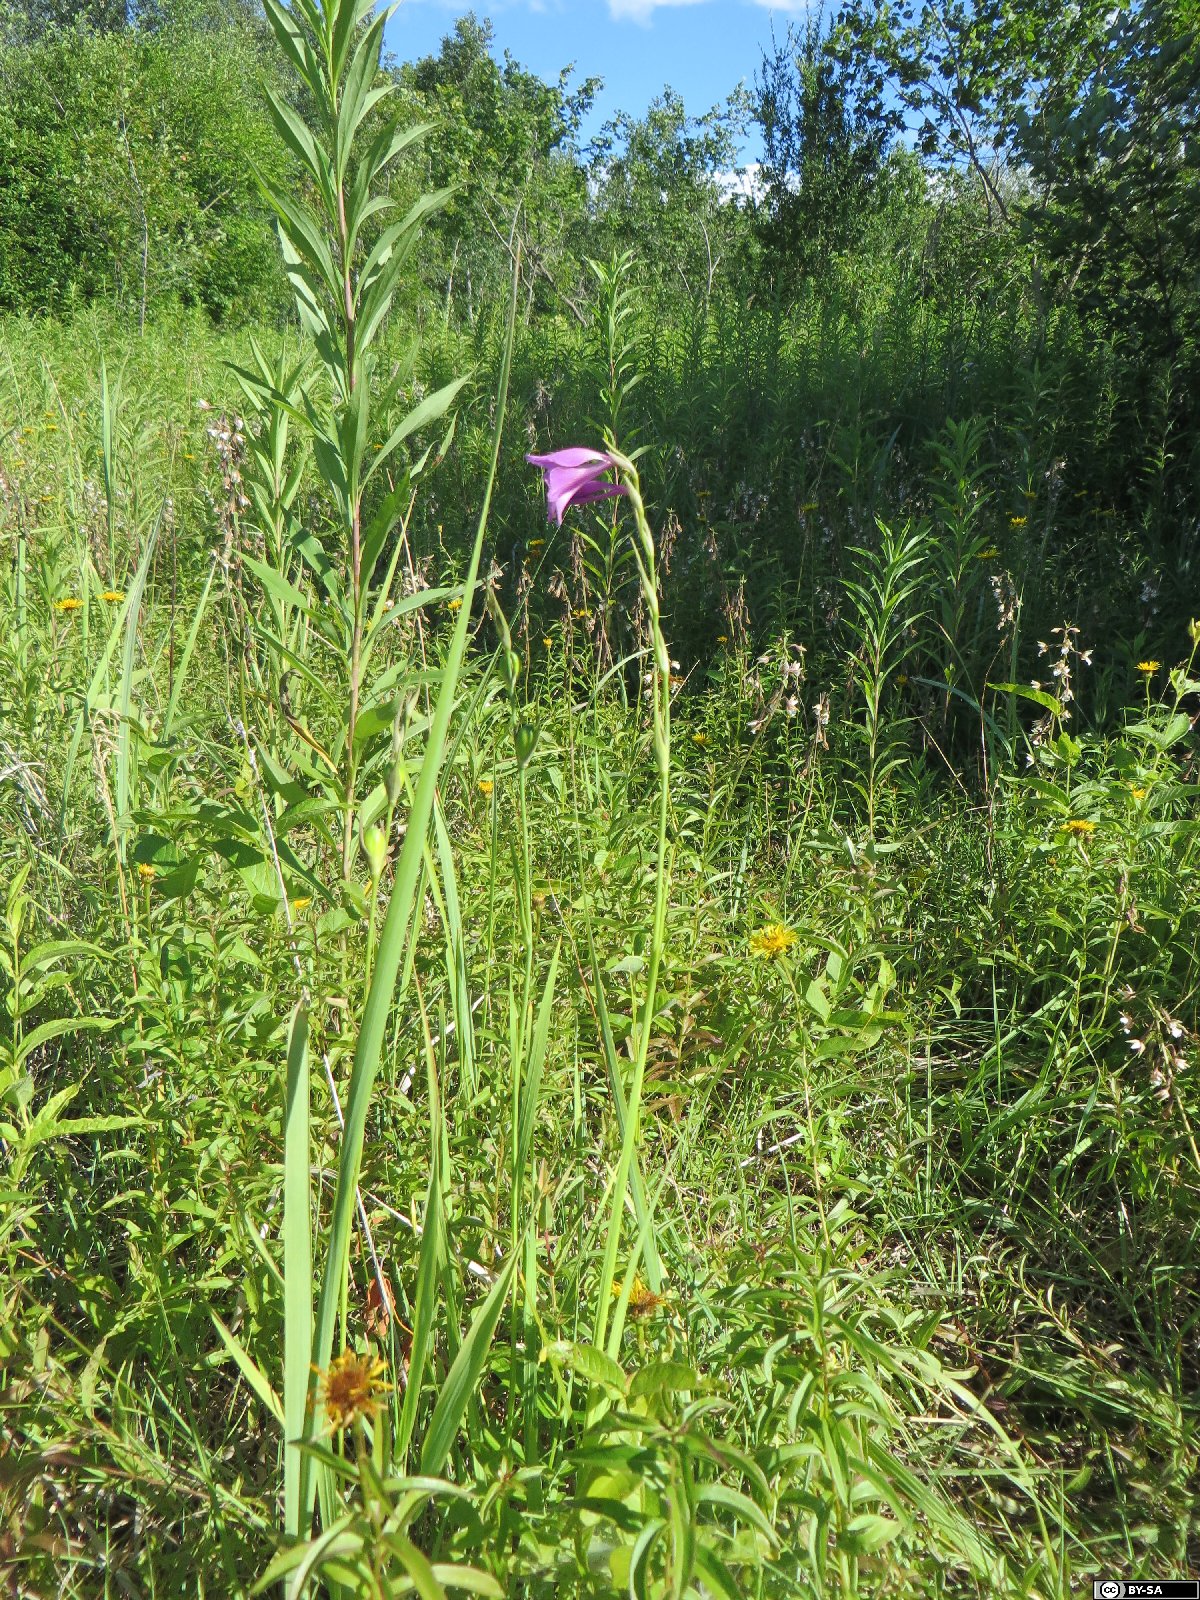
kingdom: Plantae
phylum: Tracheophyta
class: Liliopsida
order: Asparagales
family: Iridaceae
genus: Gladiolus
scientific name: Gladiolus palustris
